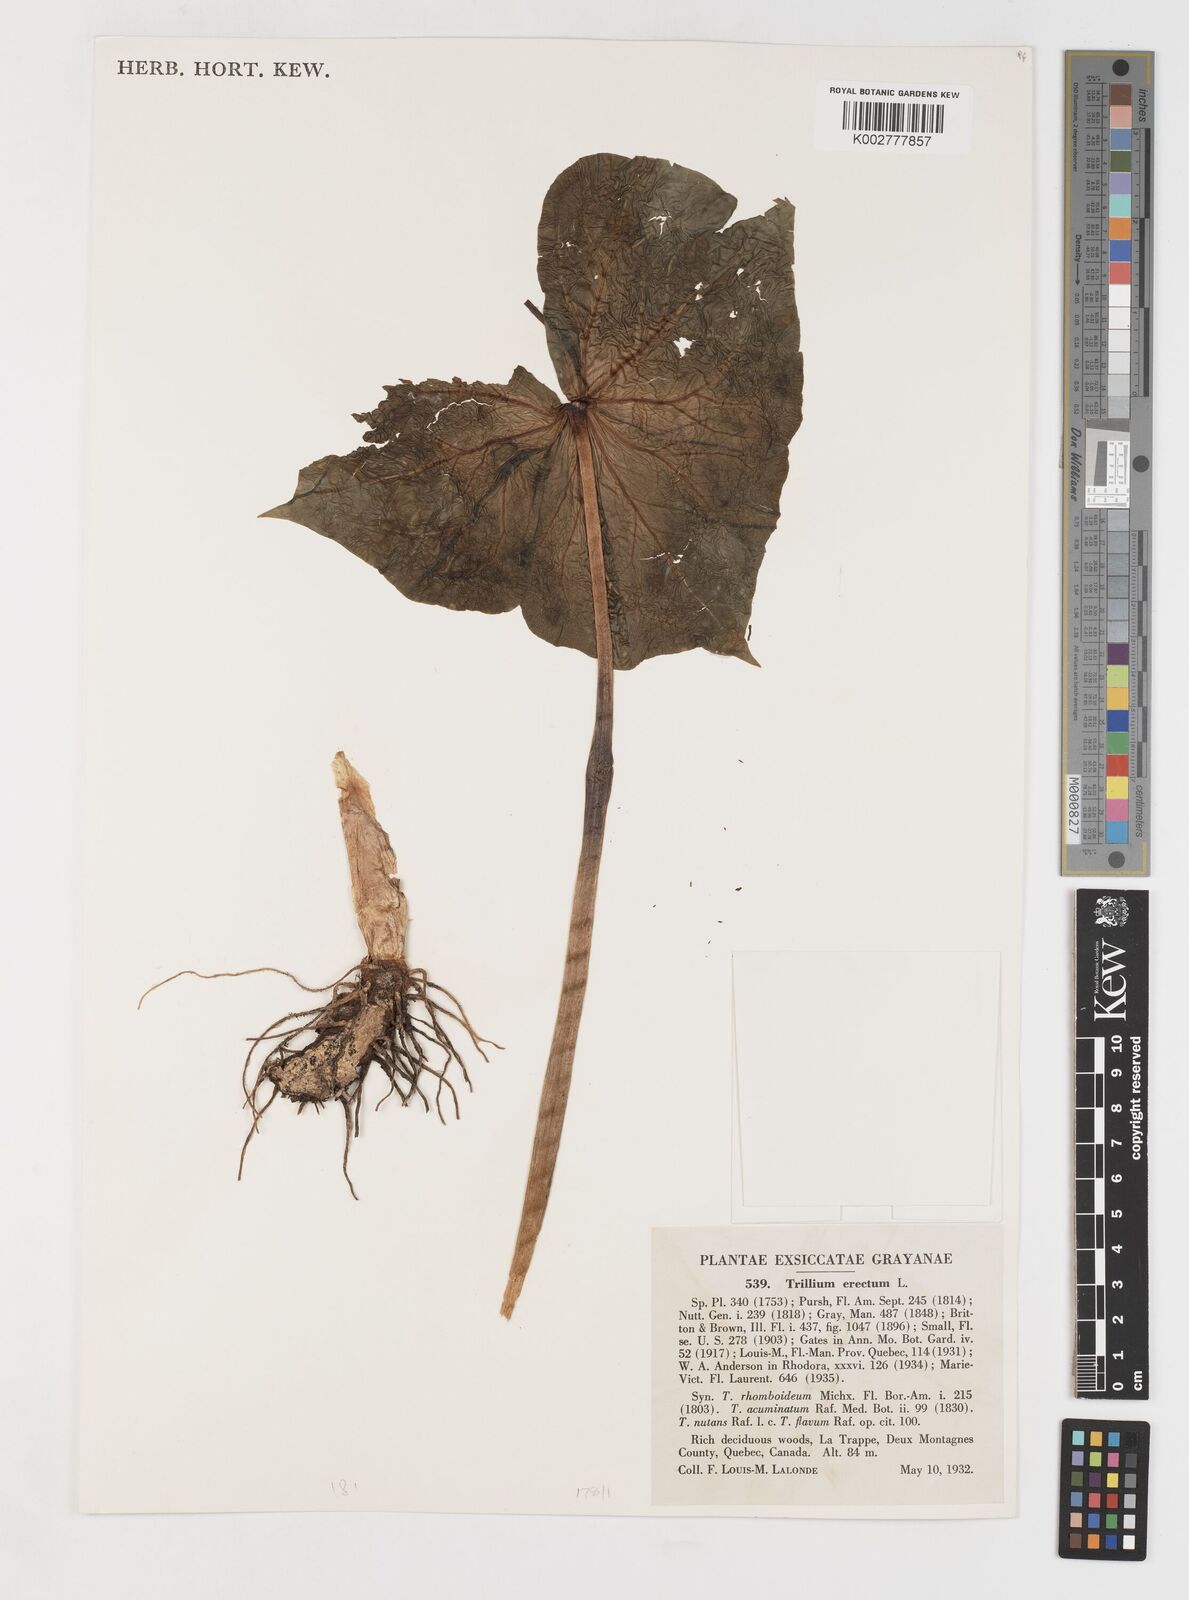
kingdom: Plantae
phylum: Tracheophyta
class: Liliopsida
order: Liliales
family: Melanthiaceae
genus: Trillium
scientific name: Trillium erectum
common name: Purple trillium
